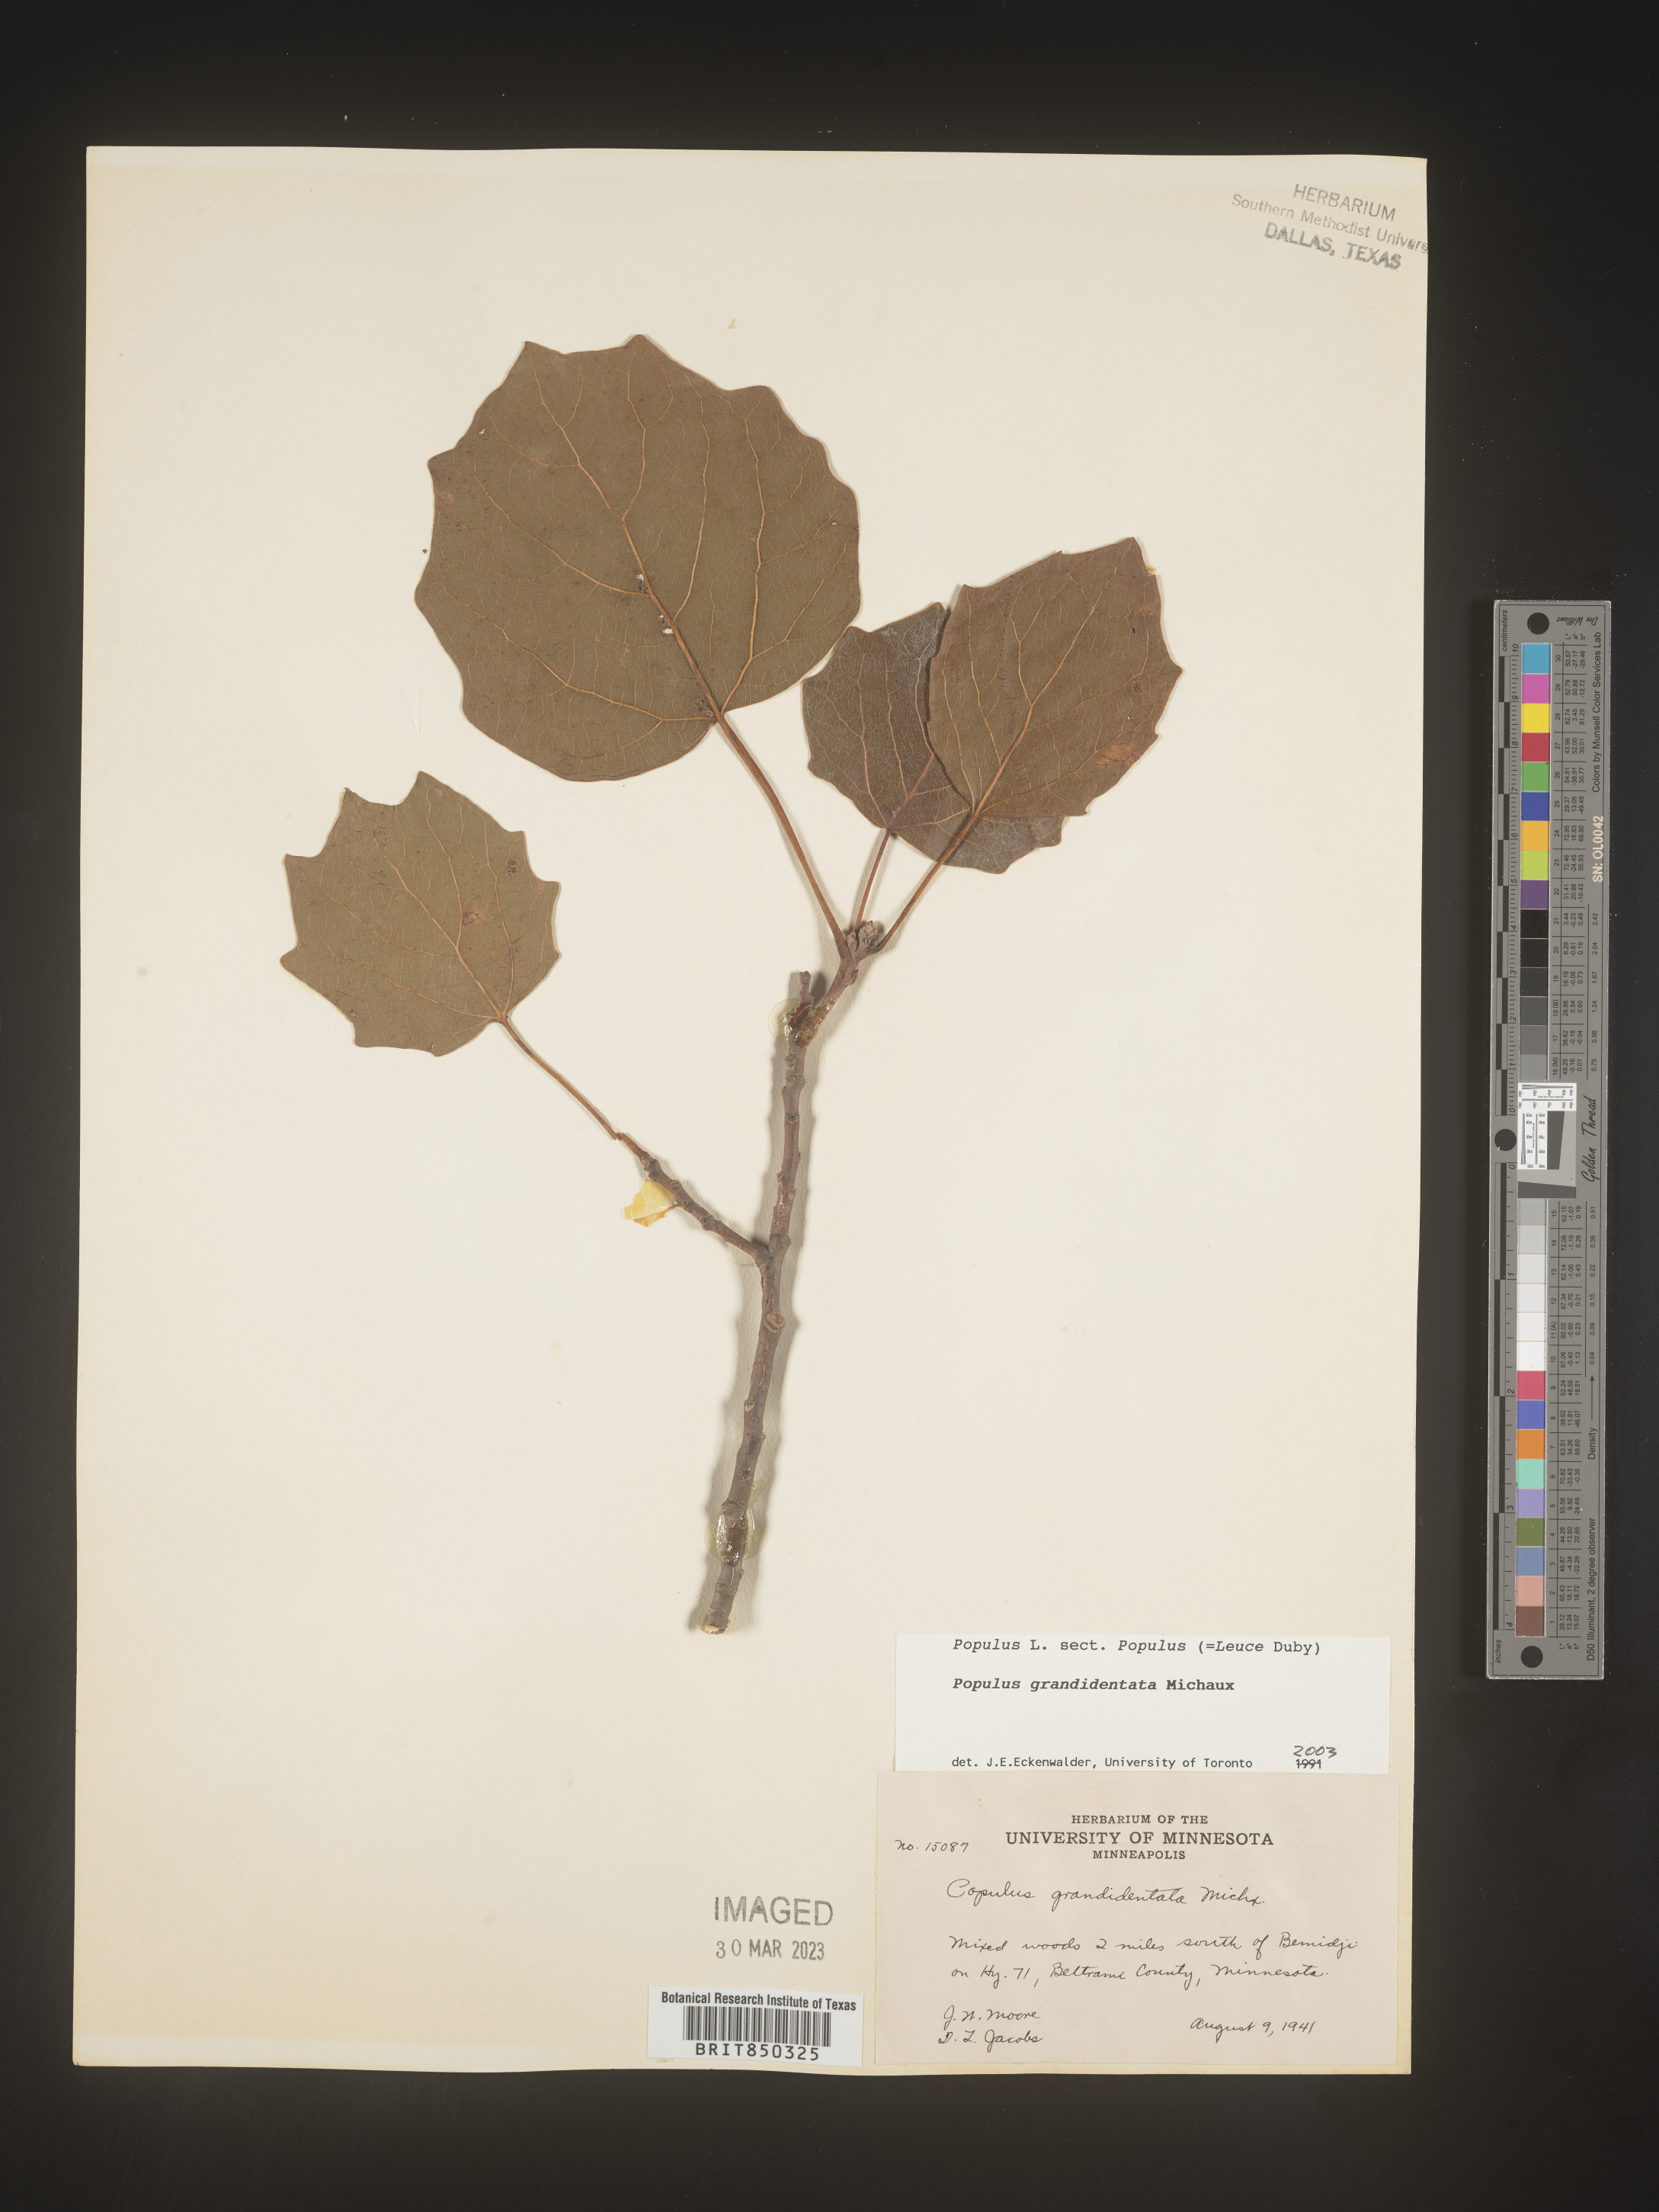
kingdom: Plantae
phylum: Tracheophyta
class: Magnoliopsida
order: Malpighiales
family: Salicaceae
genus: Populus
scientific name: Populus grandidentata
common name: Bigtooth aspen
